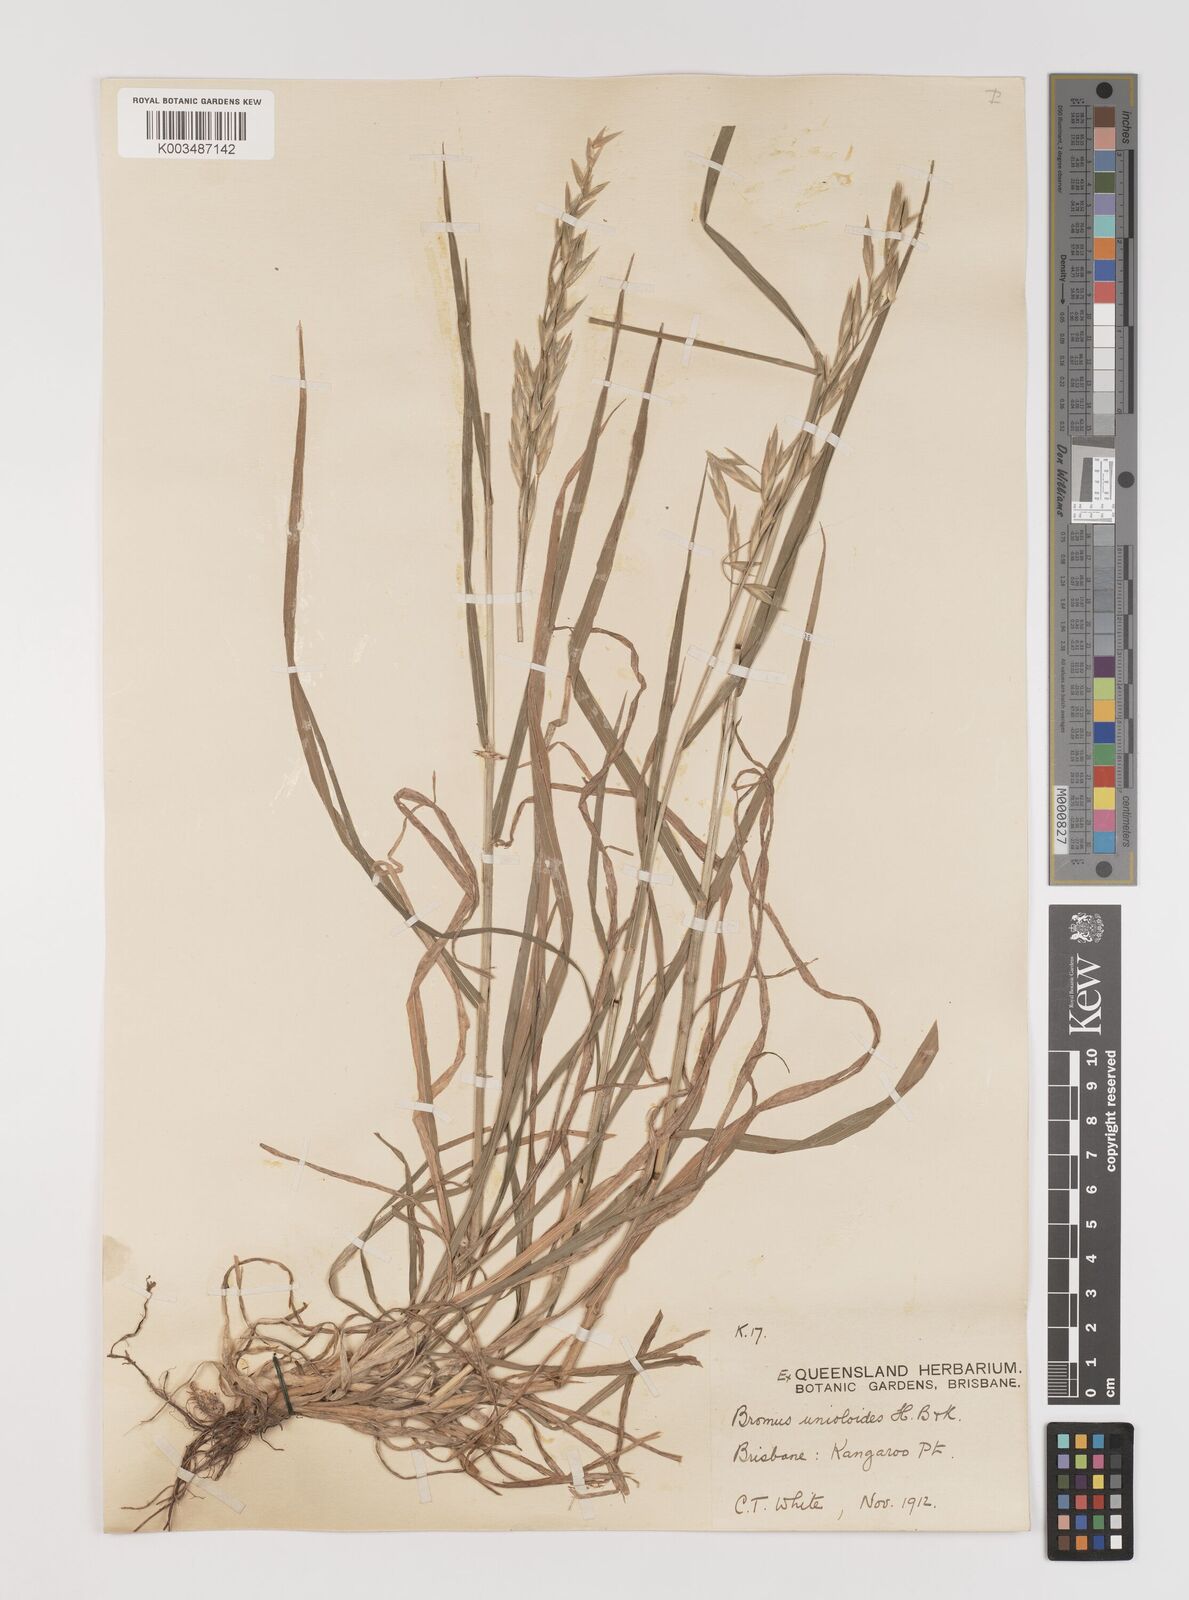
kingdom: Plantae
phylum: Tracheophyta
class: Liliopsida
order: Poales
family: Poaceae
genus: Bromus
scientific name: Bromus catharticus
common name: Rescuegrass
